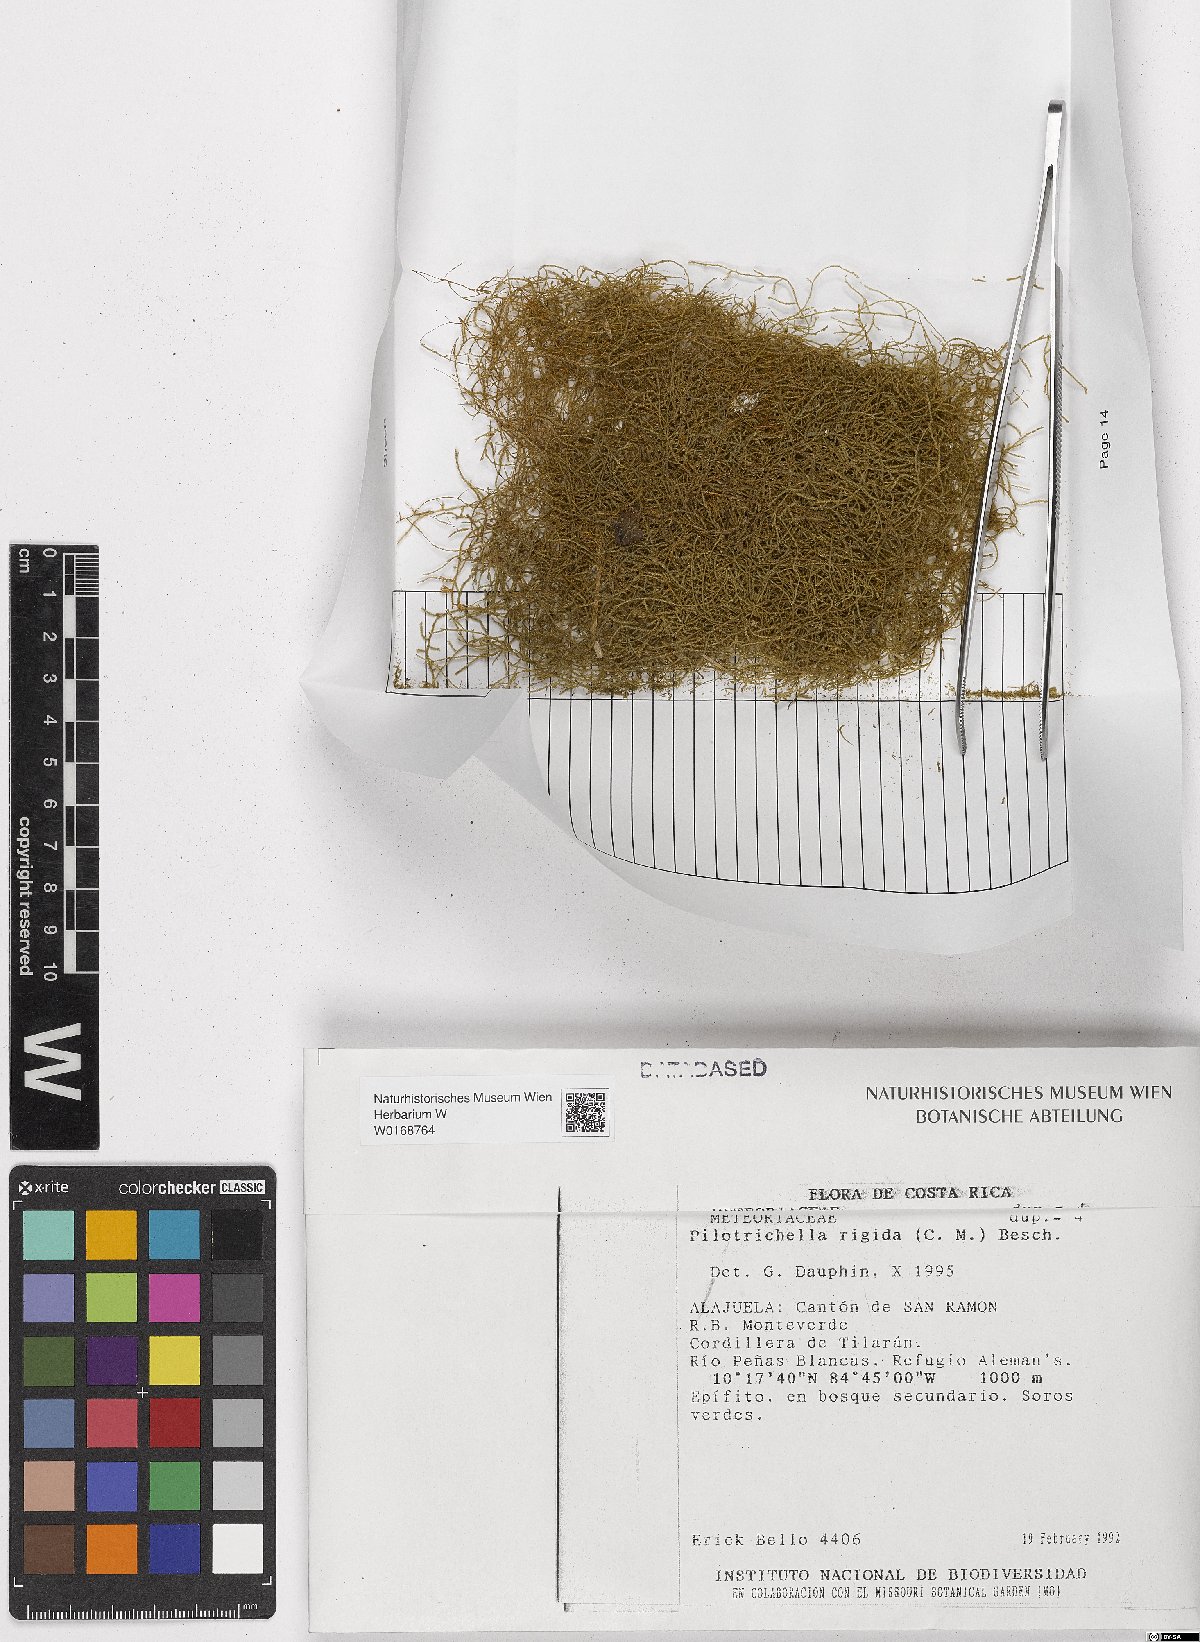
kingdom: Plantae
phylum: Bryophyta
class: Bryopsida
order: Hypnales
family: Orthostichellaceae
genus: Orthostichella
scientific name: Orthostichella rigida
